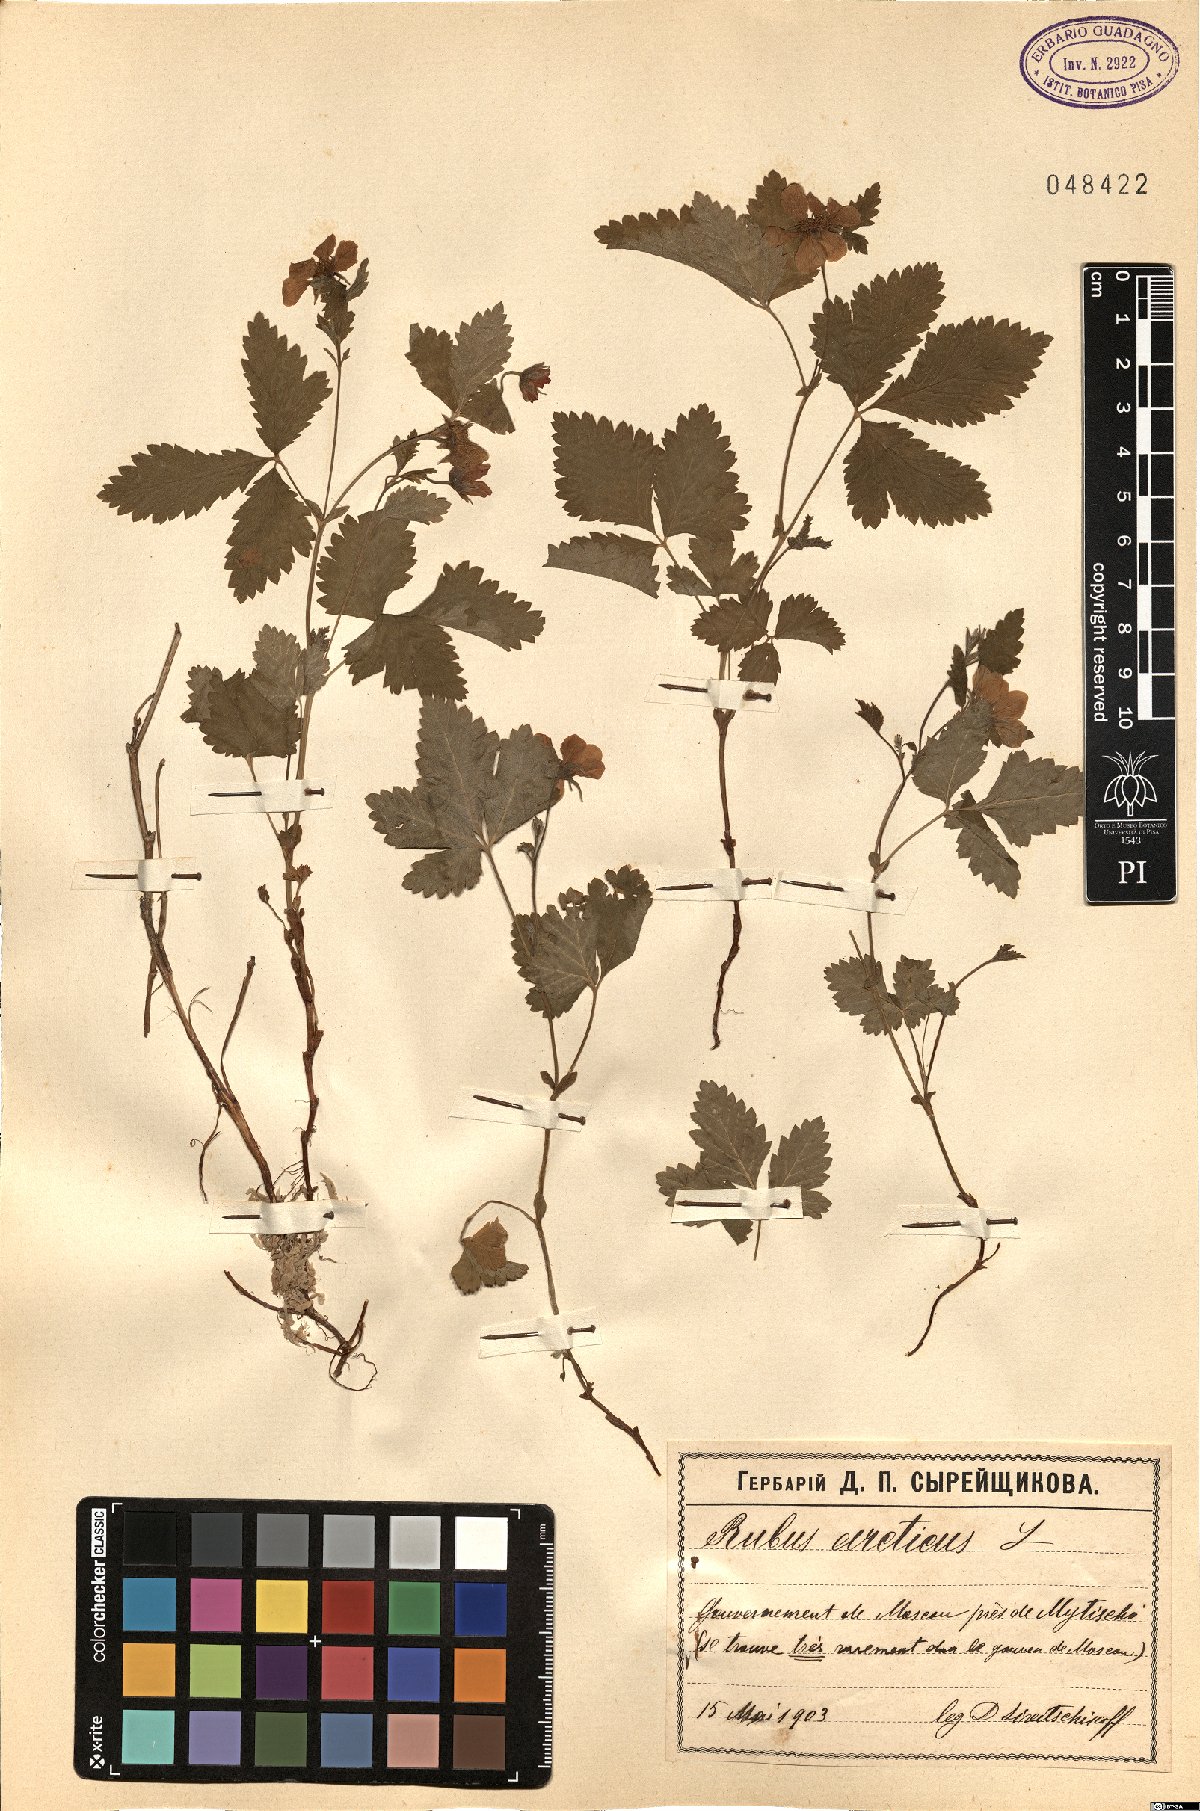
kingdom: Plantae
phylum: Tracheophyta
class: Magnoliopsida
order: Rosales
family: Rosaceae
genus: Rubus
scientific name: Rubus arcticus
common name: Arctic bramble
